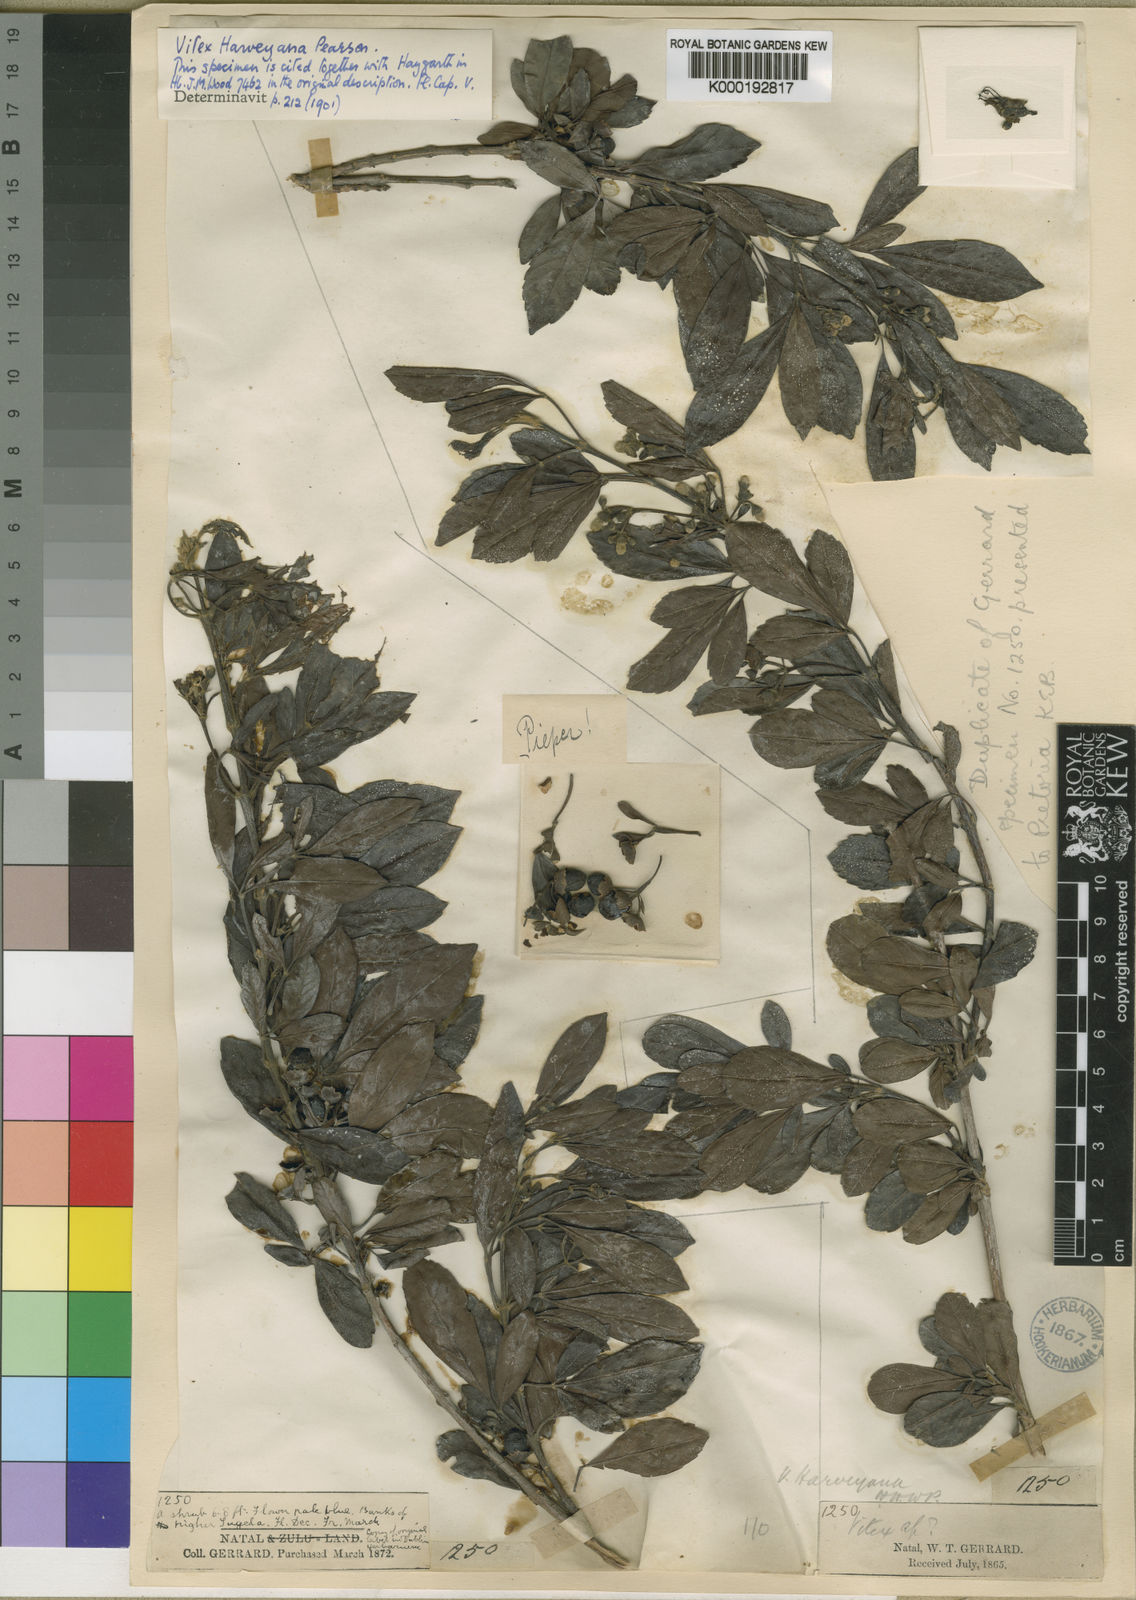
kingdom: Plantae
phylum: Tracheophyta
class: Magnoliopsida
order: Lamiales
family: Lamiaceae
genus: Vitex
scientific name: Vitex harveyana
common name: Scrambling fingerleaf
